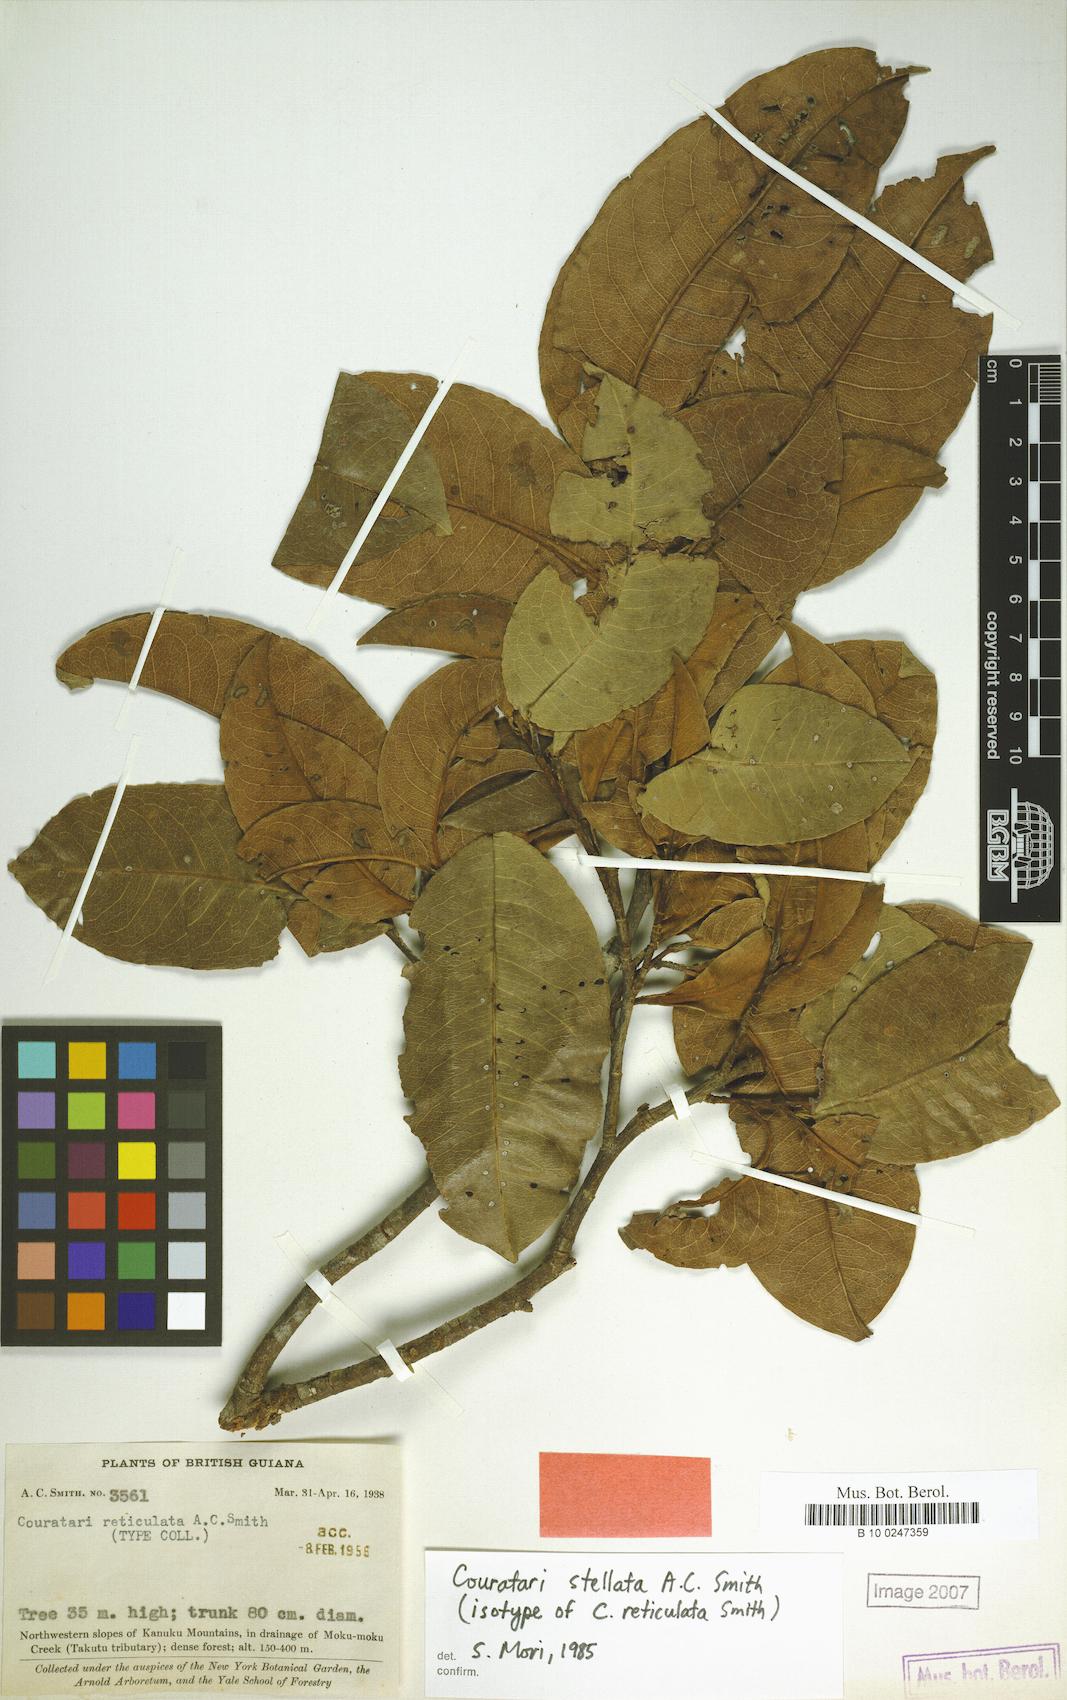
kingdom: Plantae
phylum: Tracheophyta
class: Magnoliopsida
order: Ericales
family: Lecythidaceae
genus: Couratari
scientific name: Couratari stellata
